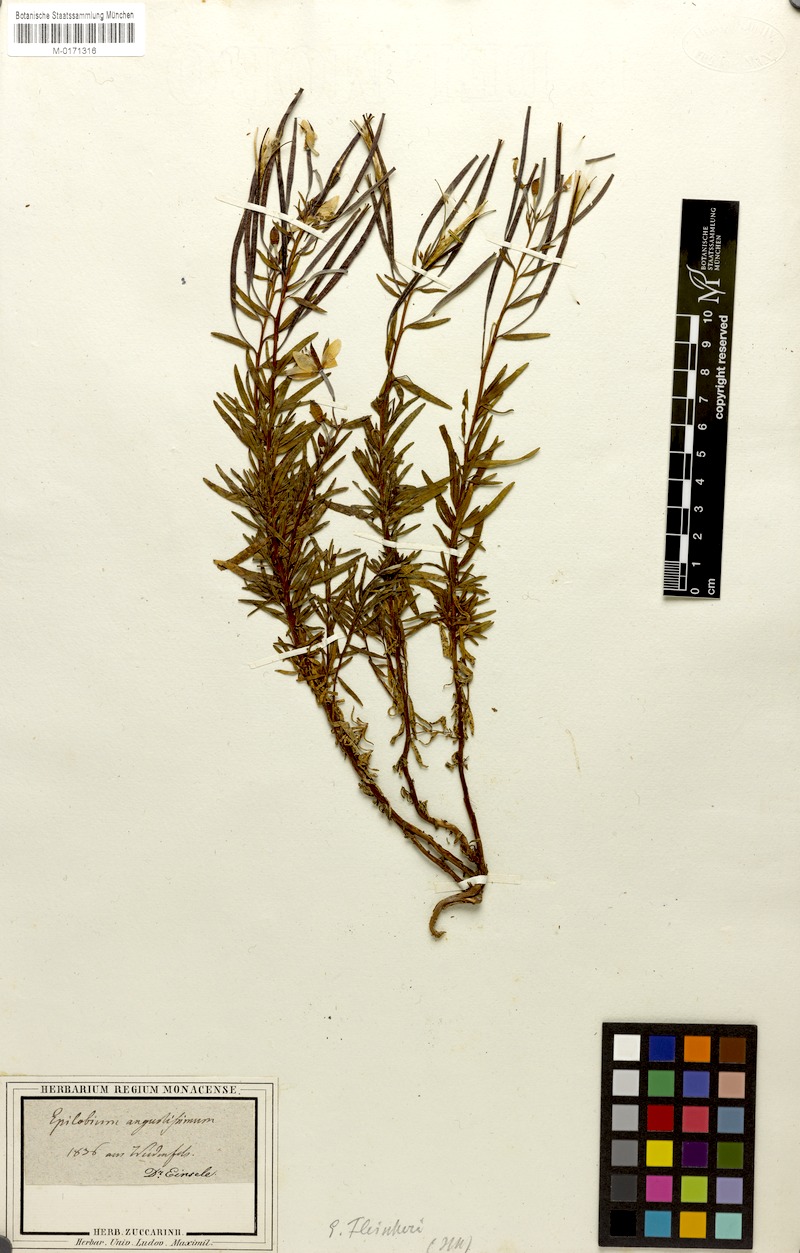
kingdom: Plantae
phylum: Tracheophyta
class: Magnoliopsida
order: Myrtales
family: Onagraceae
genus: Chamaenerion
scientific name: Chamaenerion fleischeri
